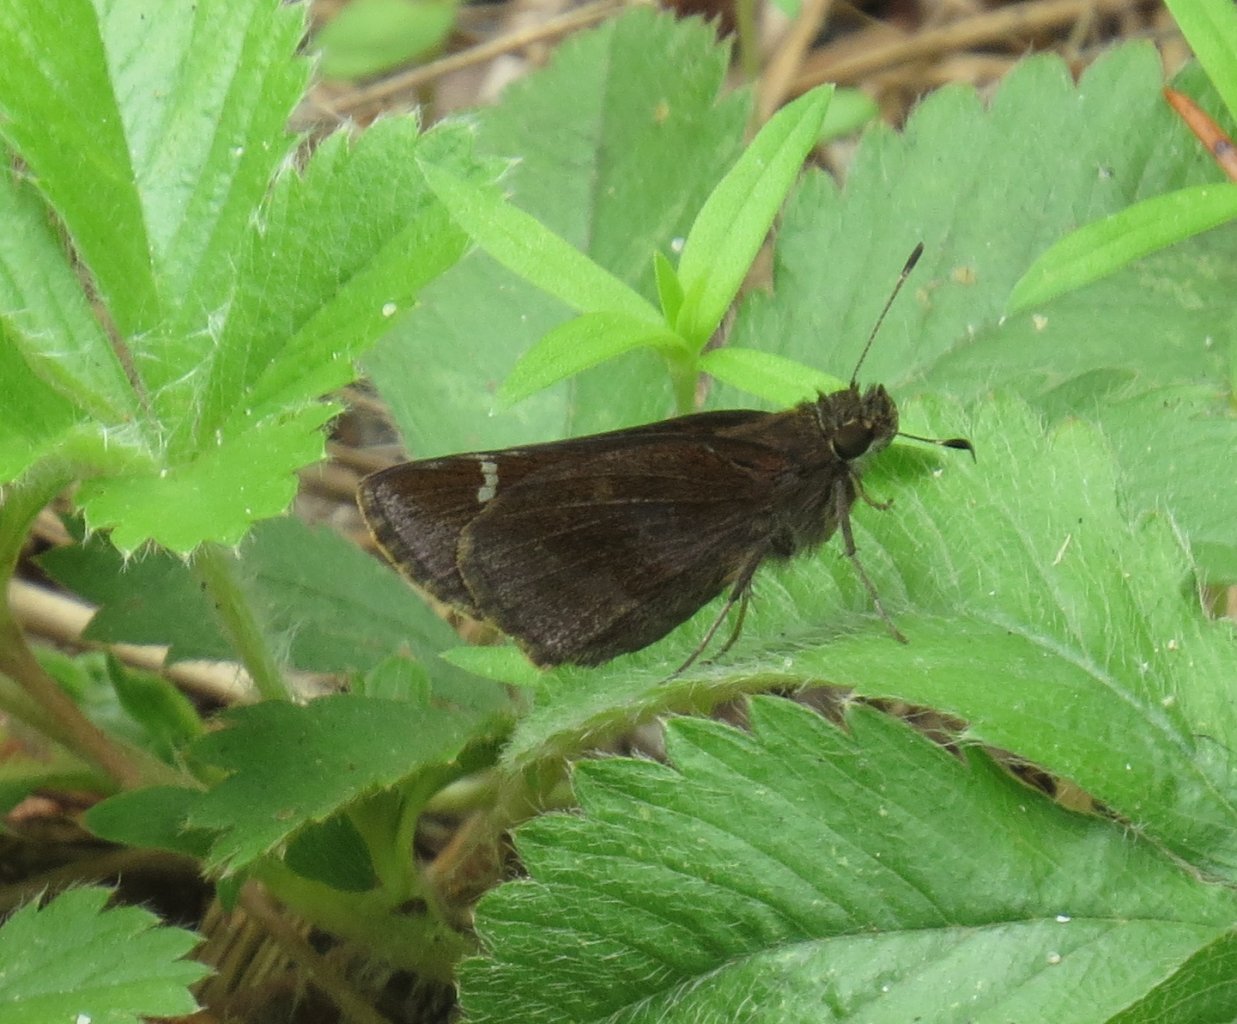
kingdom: Animalia
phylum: Arthropoda
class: Insecta
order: Lepidoptera
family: Hesperiidae
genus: Lerema
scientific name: Lerema accius
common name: Clouded Skipper
